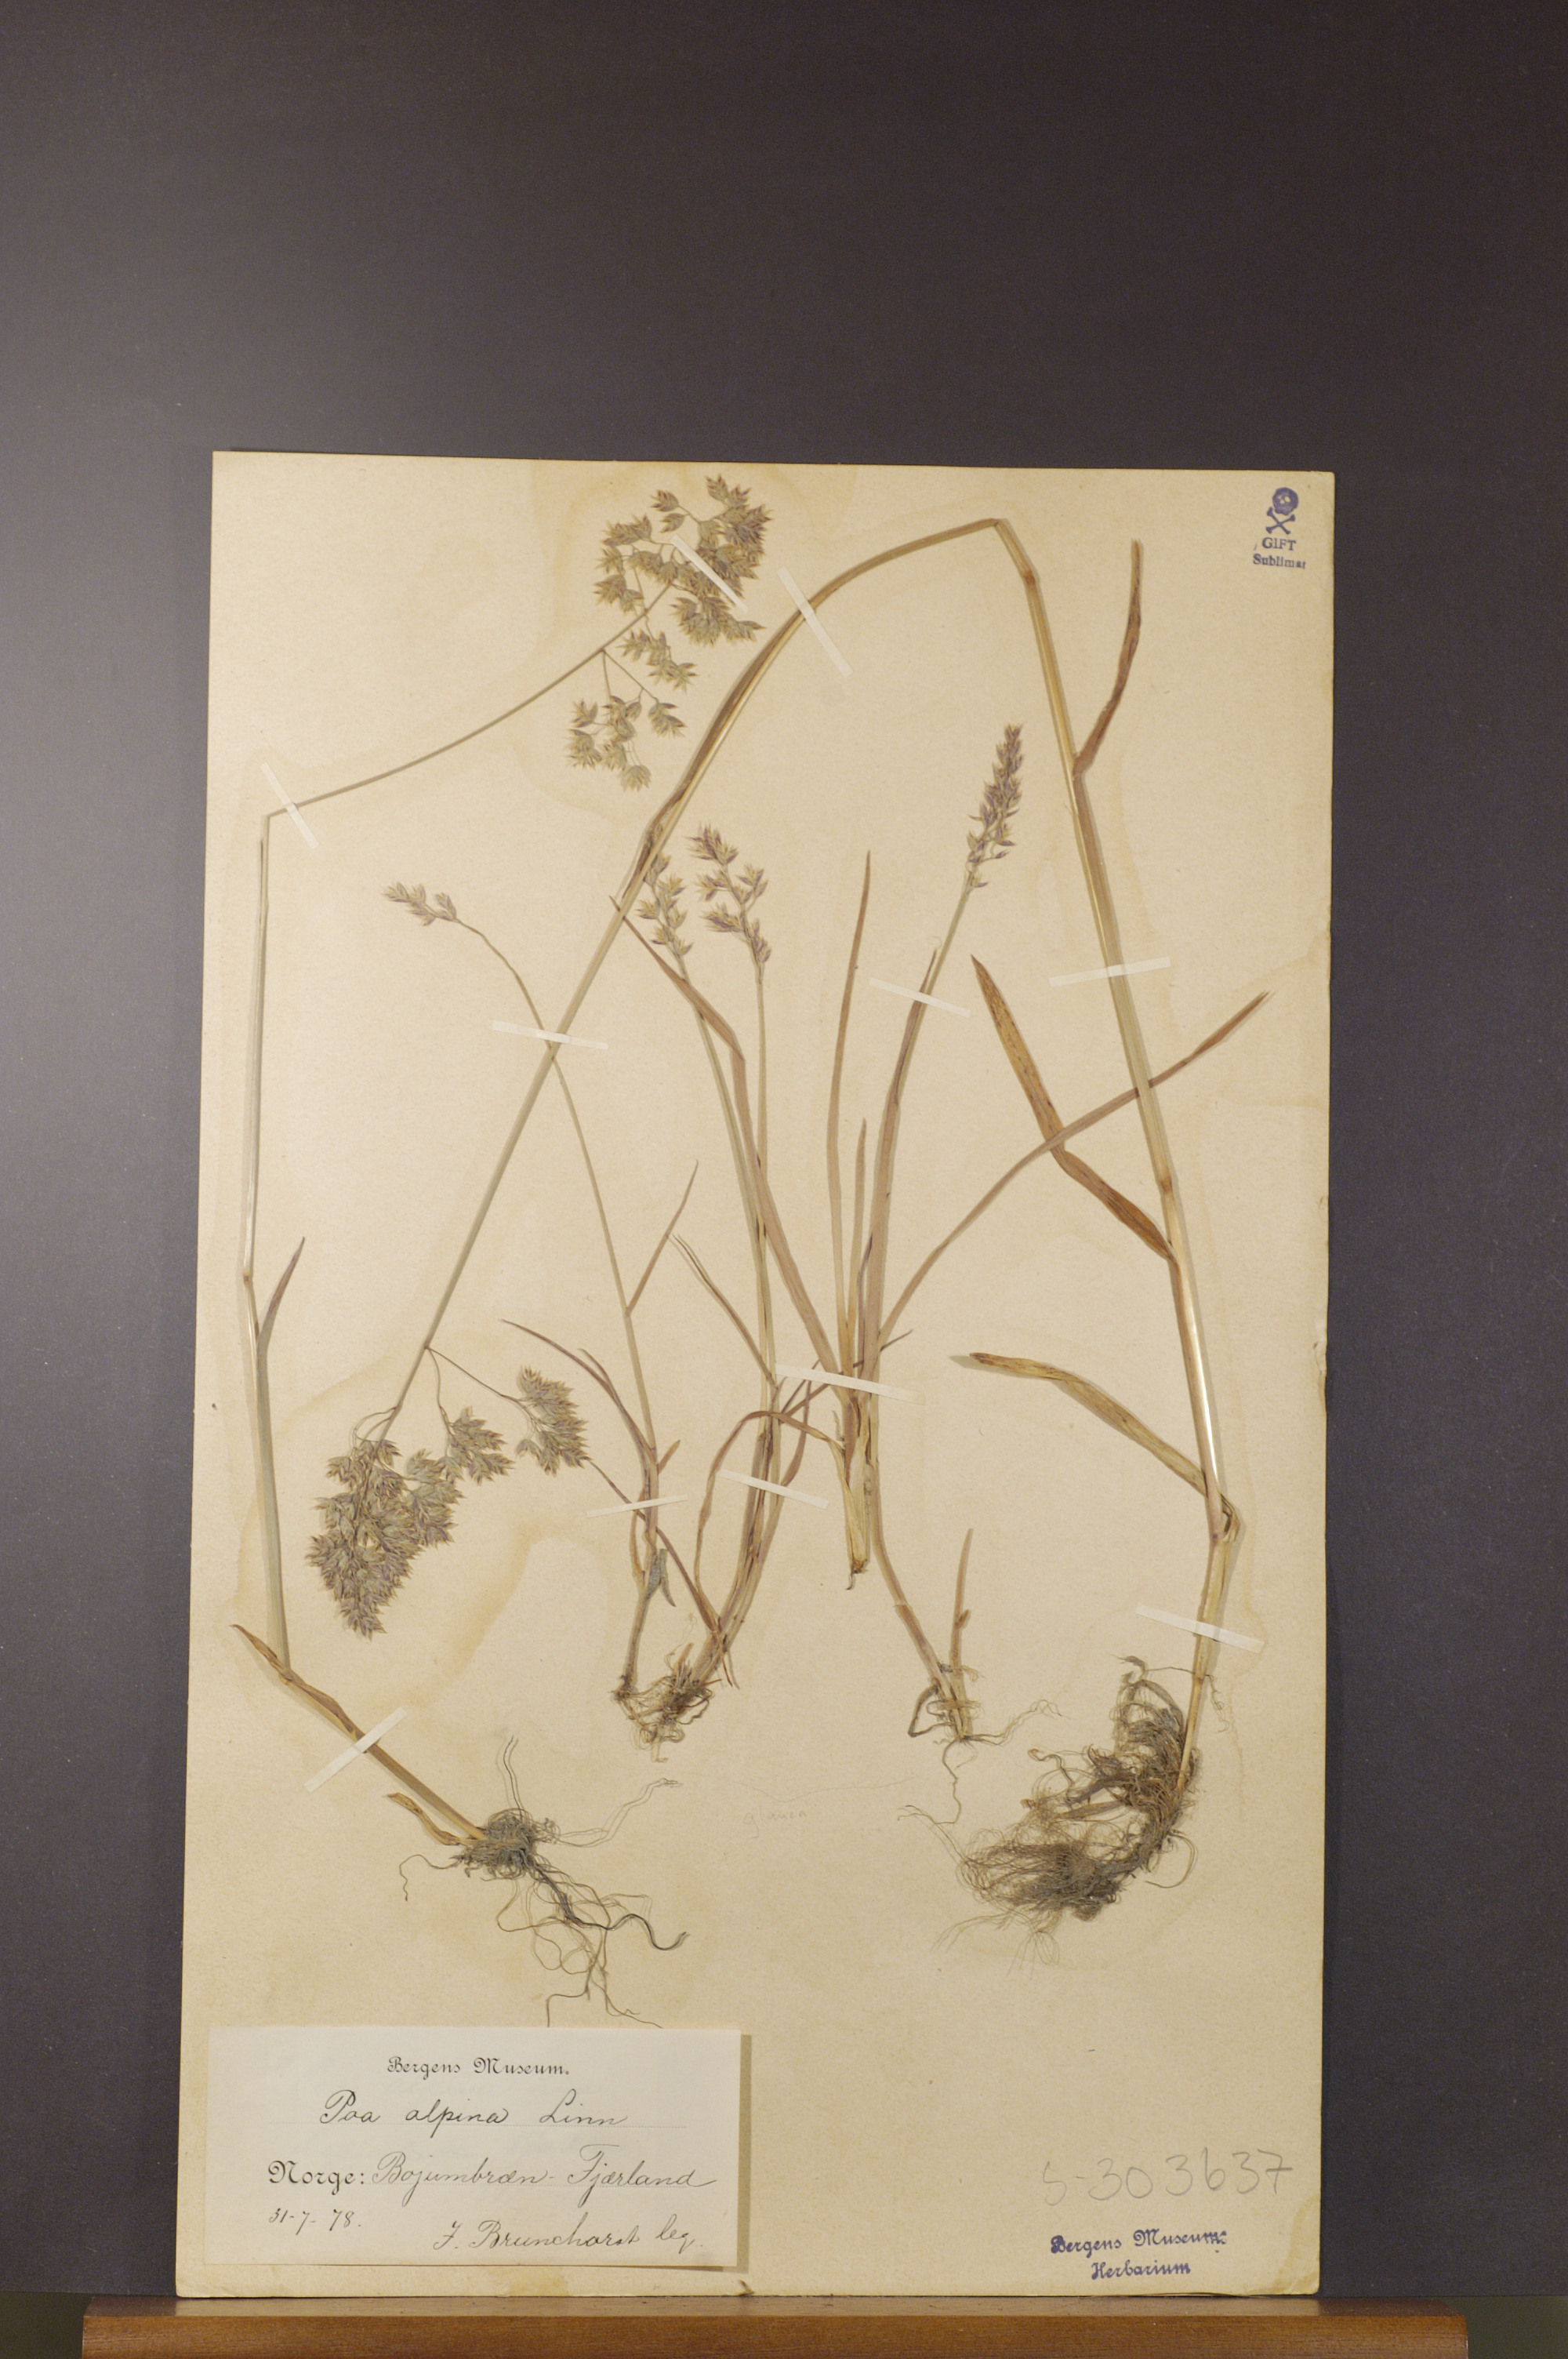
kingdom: Plantae
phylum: Tracheophyta
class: Liliopsida
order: Poales
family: Poaceae
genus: Poa
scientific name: Poa alpina
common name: Alpine bluegrass
